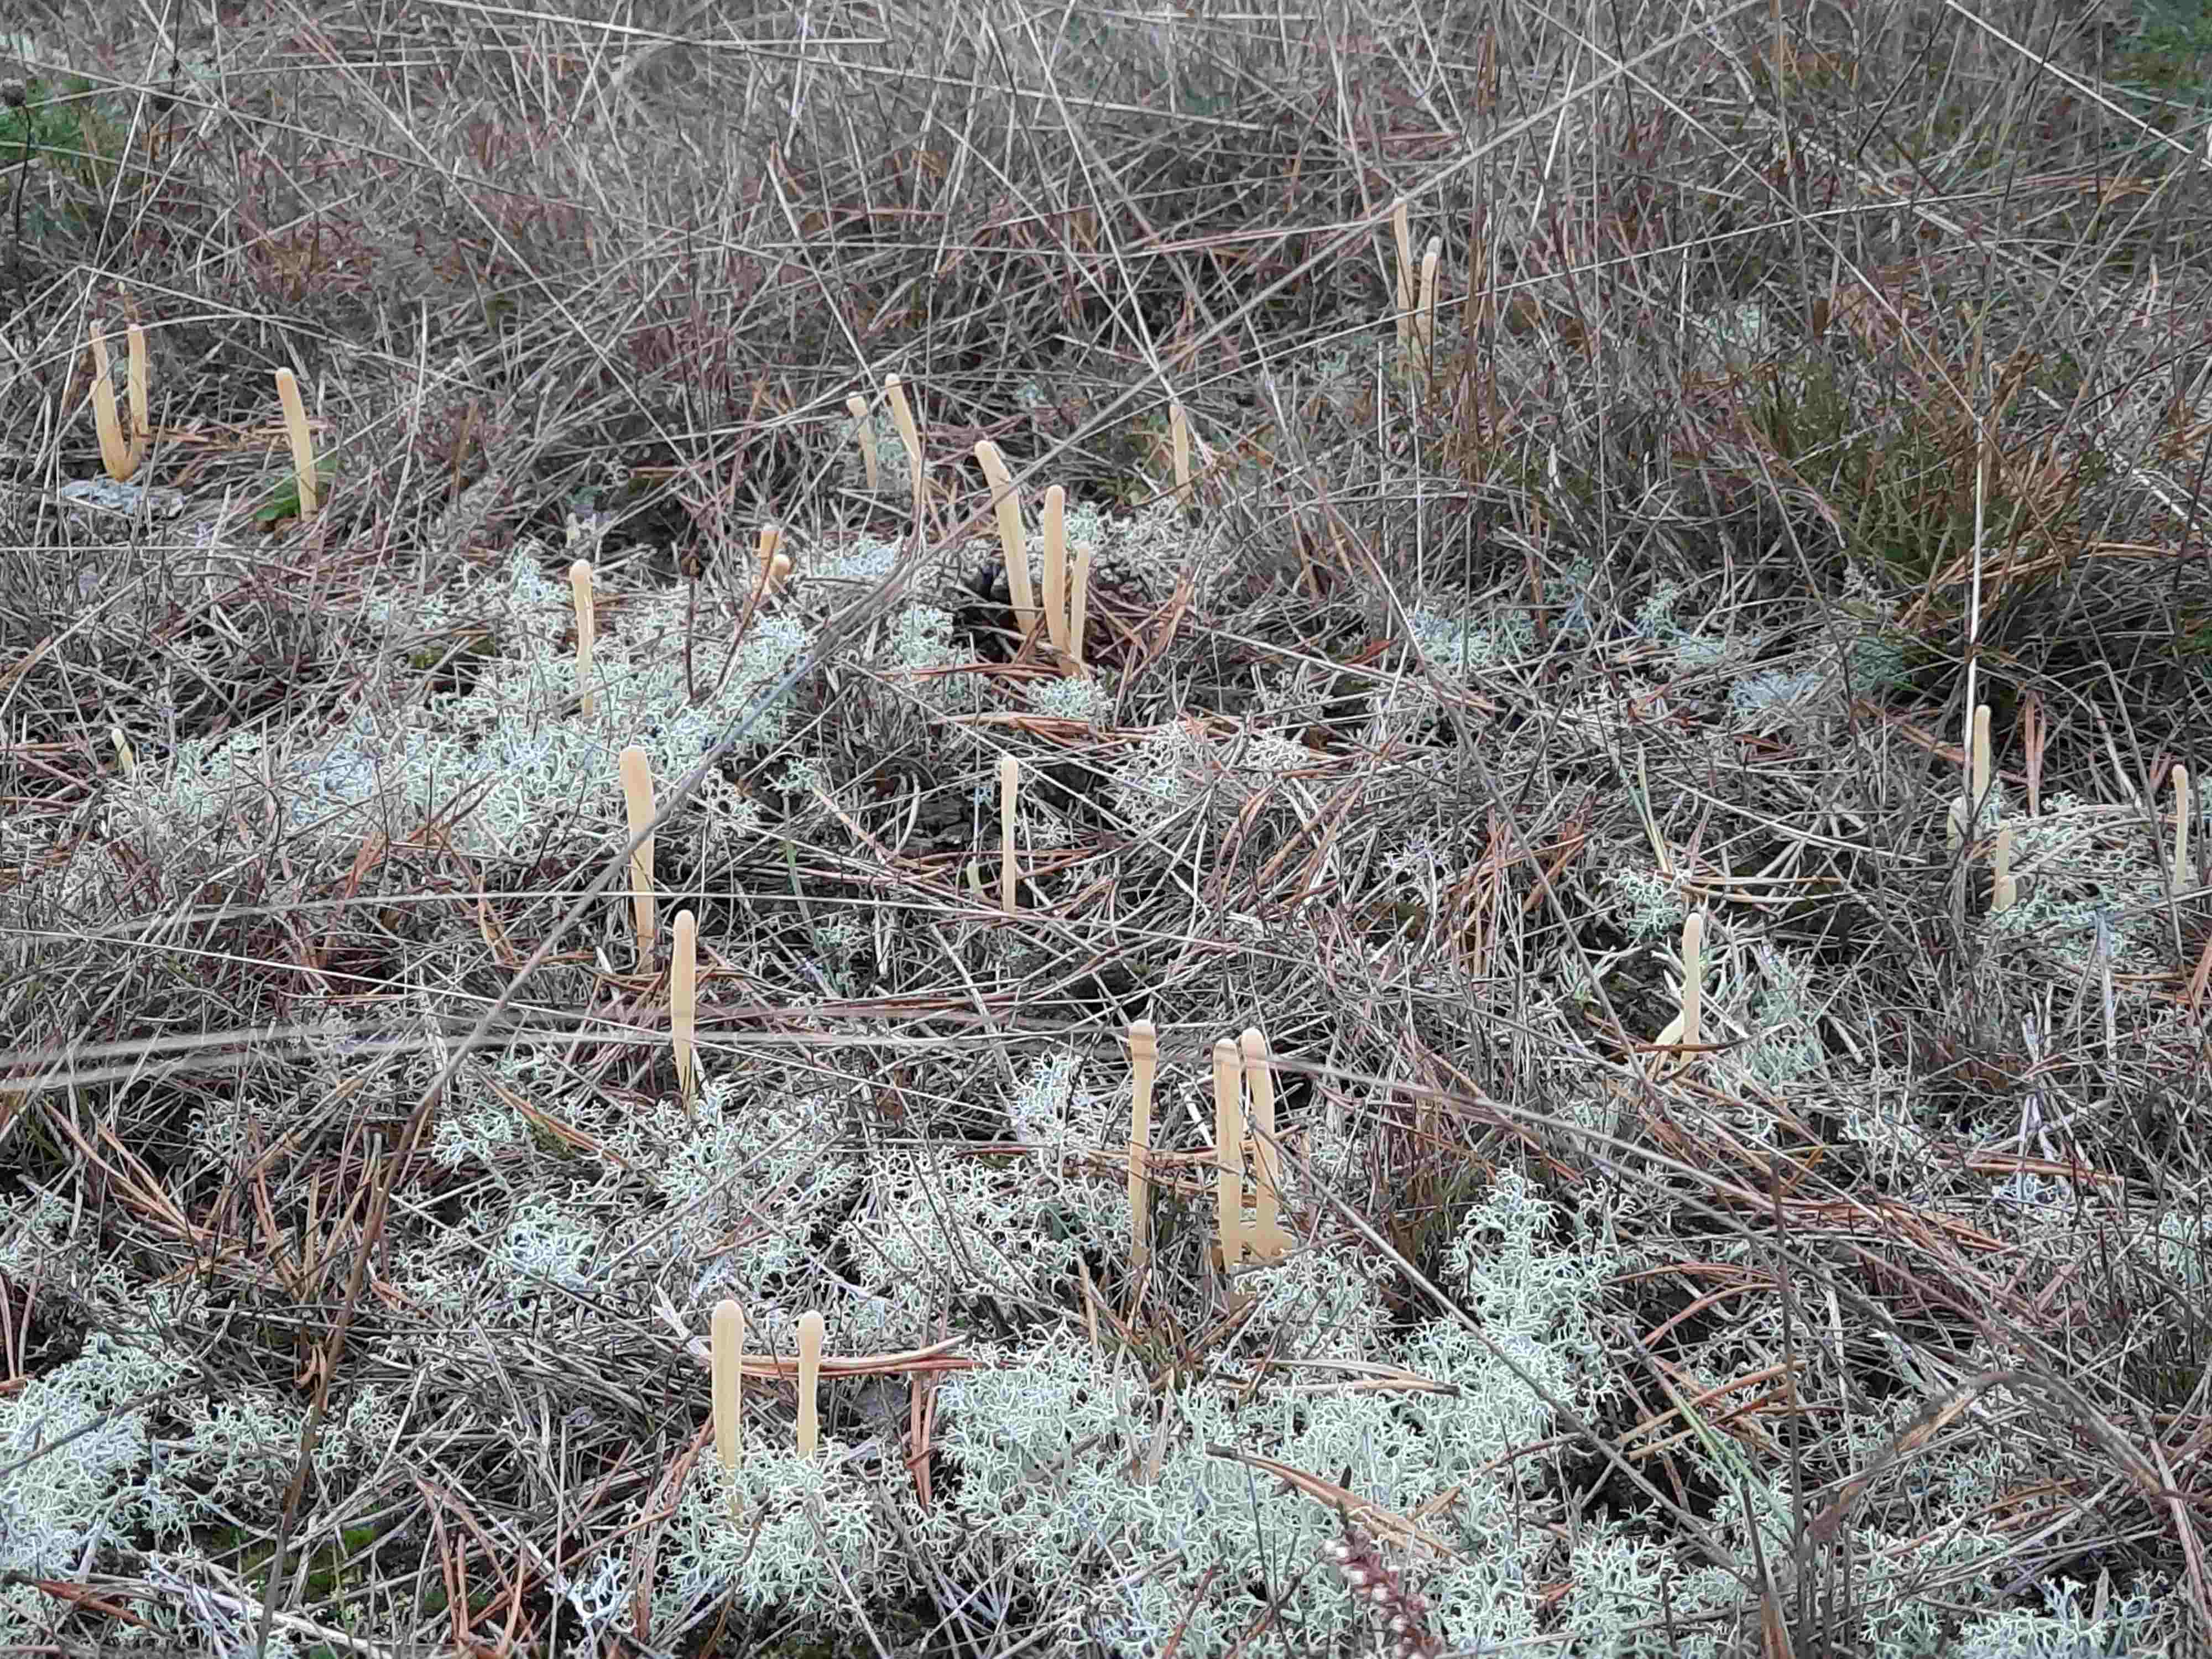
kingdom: Fungi
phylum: Basidiomycota
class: Agaricomycetes
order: Agaricales
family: Clavariaceae
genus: Clavaria
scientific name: Clavaria argillacea
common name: lerfarvet køllesvamp
